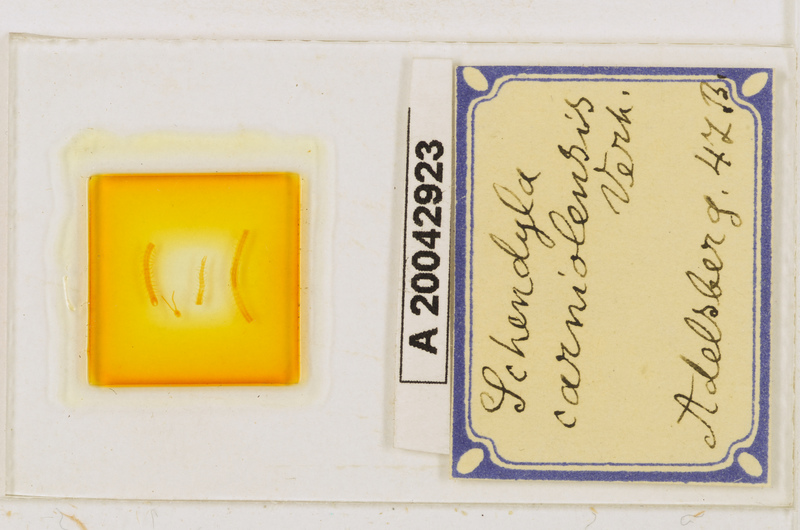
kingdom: Animalia
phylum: Arthropoda
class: Chilopoda
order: Geophilomorpha
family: Schendylidae
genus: Schendyla
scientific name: Schendyla carniolensis
